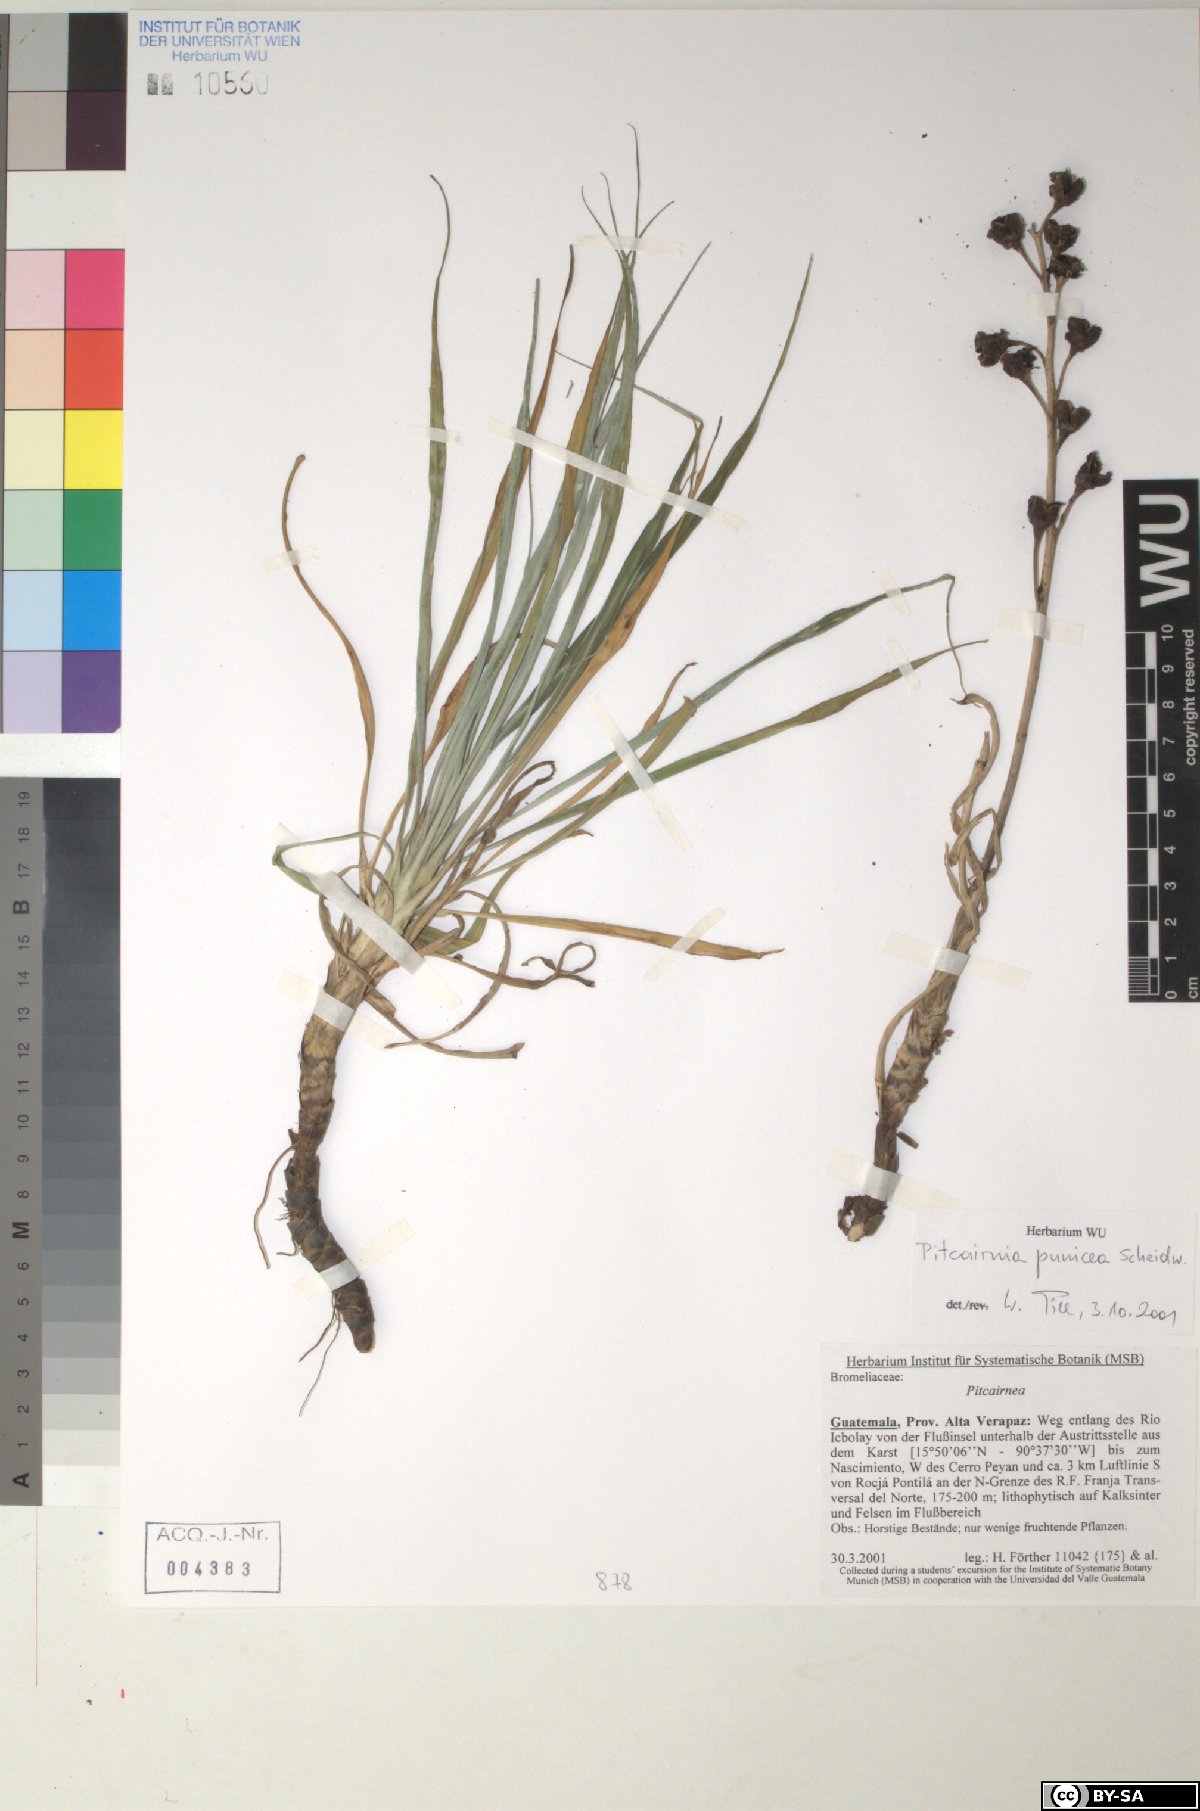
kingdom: Plantae
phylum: Tracheophyta
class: Liliopsida
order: Poales
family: Bromeliaceae
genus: Pitcairnia
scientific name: Pitcairnia punicea
